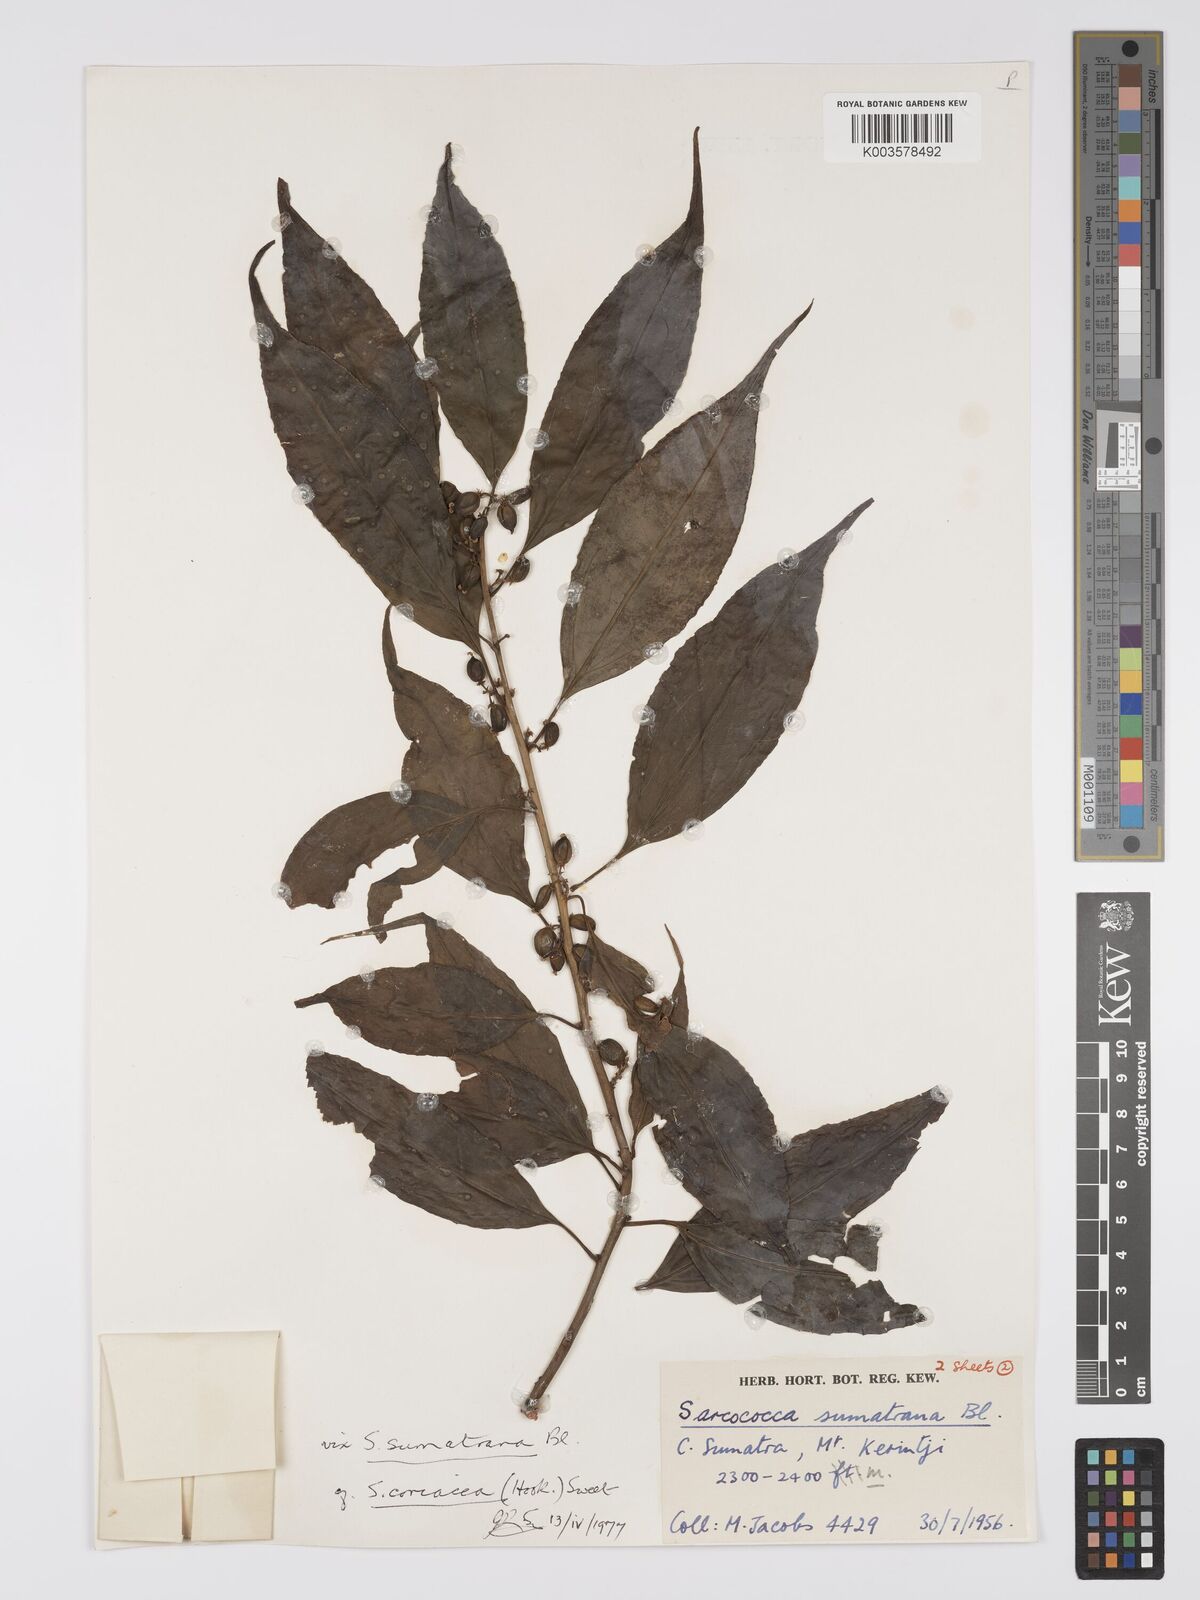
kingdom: Plantae
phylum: Tracheophyta
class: Magnoliopsida
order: Buxales
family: Buxaceae
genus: Sarcococca
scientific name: Sarcococca coriacea
